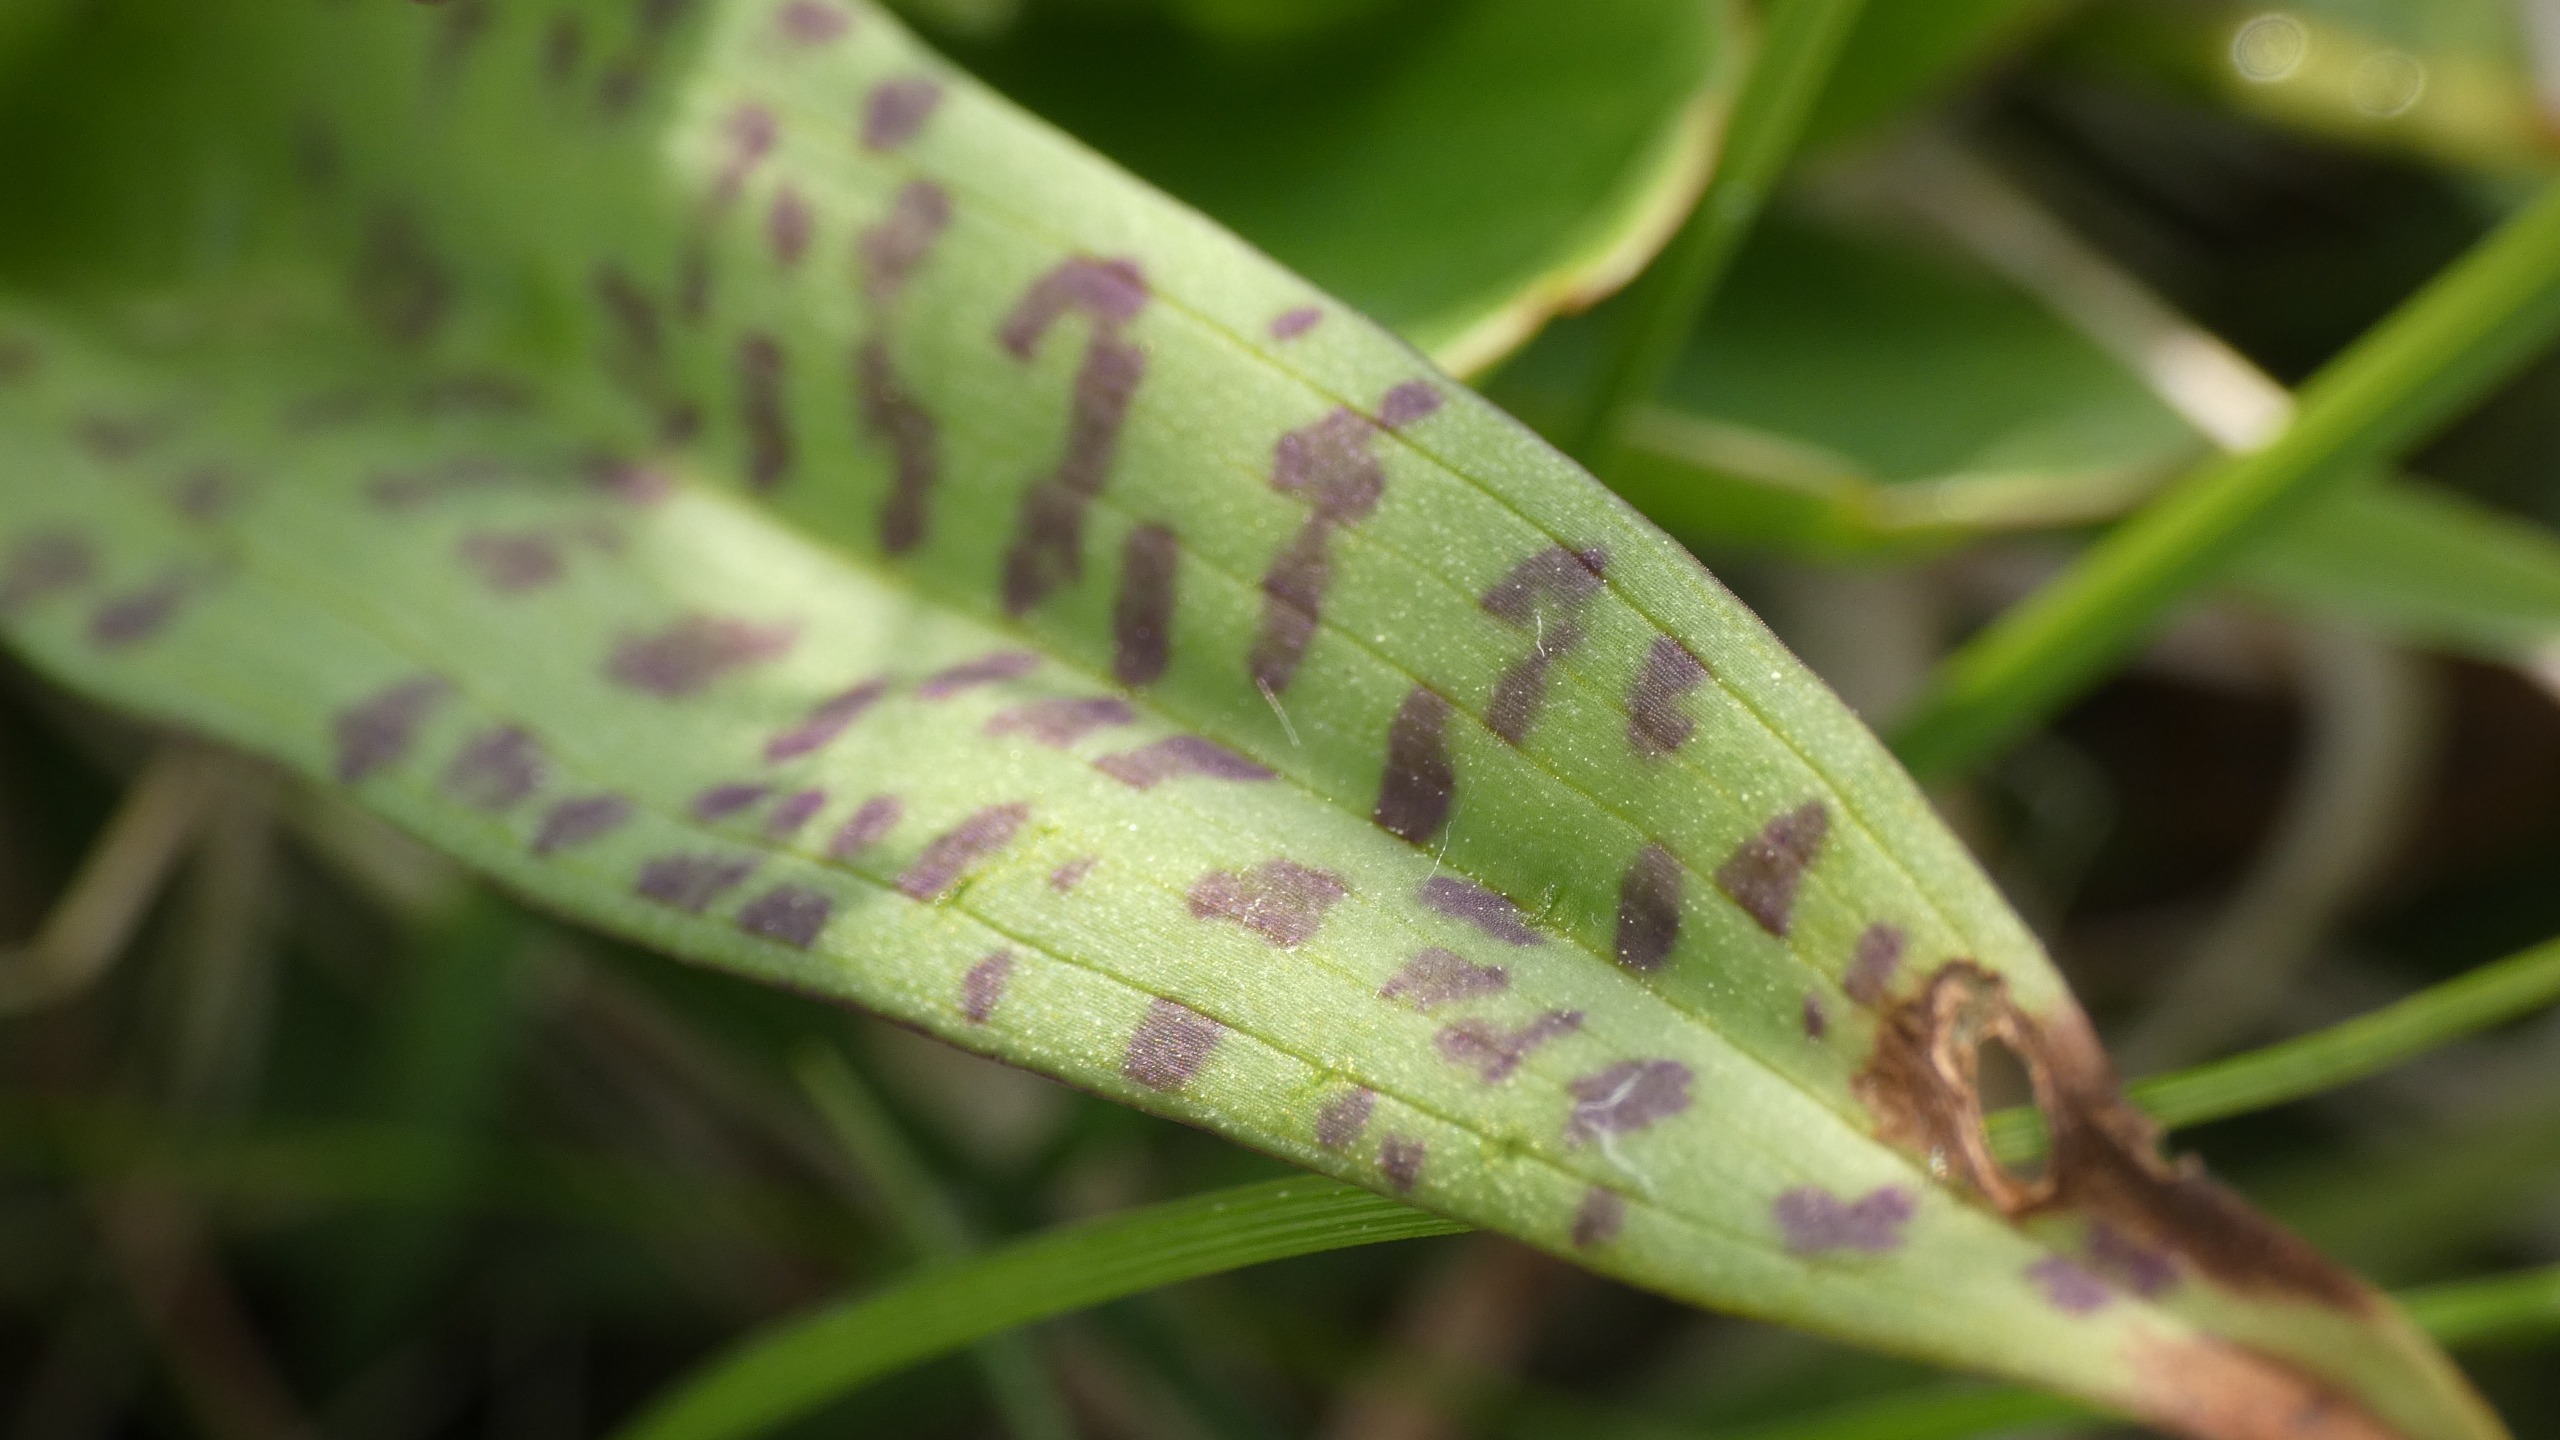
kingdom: Plantae
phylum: Tracheophyta
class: Liliopsida
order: Asparagales
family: Orchidaceae
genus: Dactylorhiza
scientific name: Dactylorhiza majalis
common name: Maj-gøgeurt
